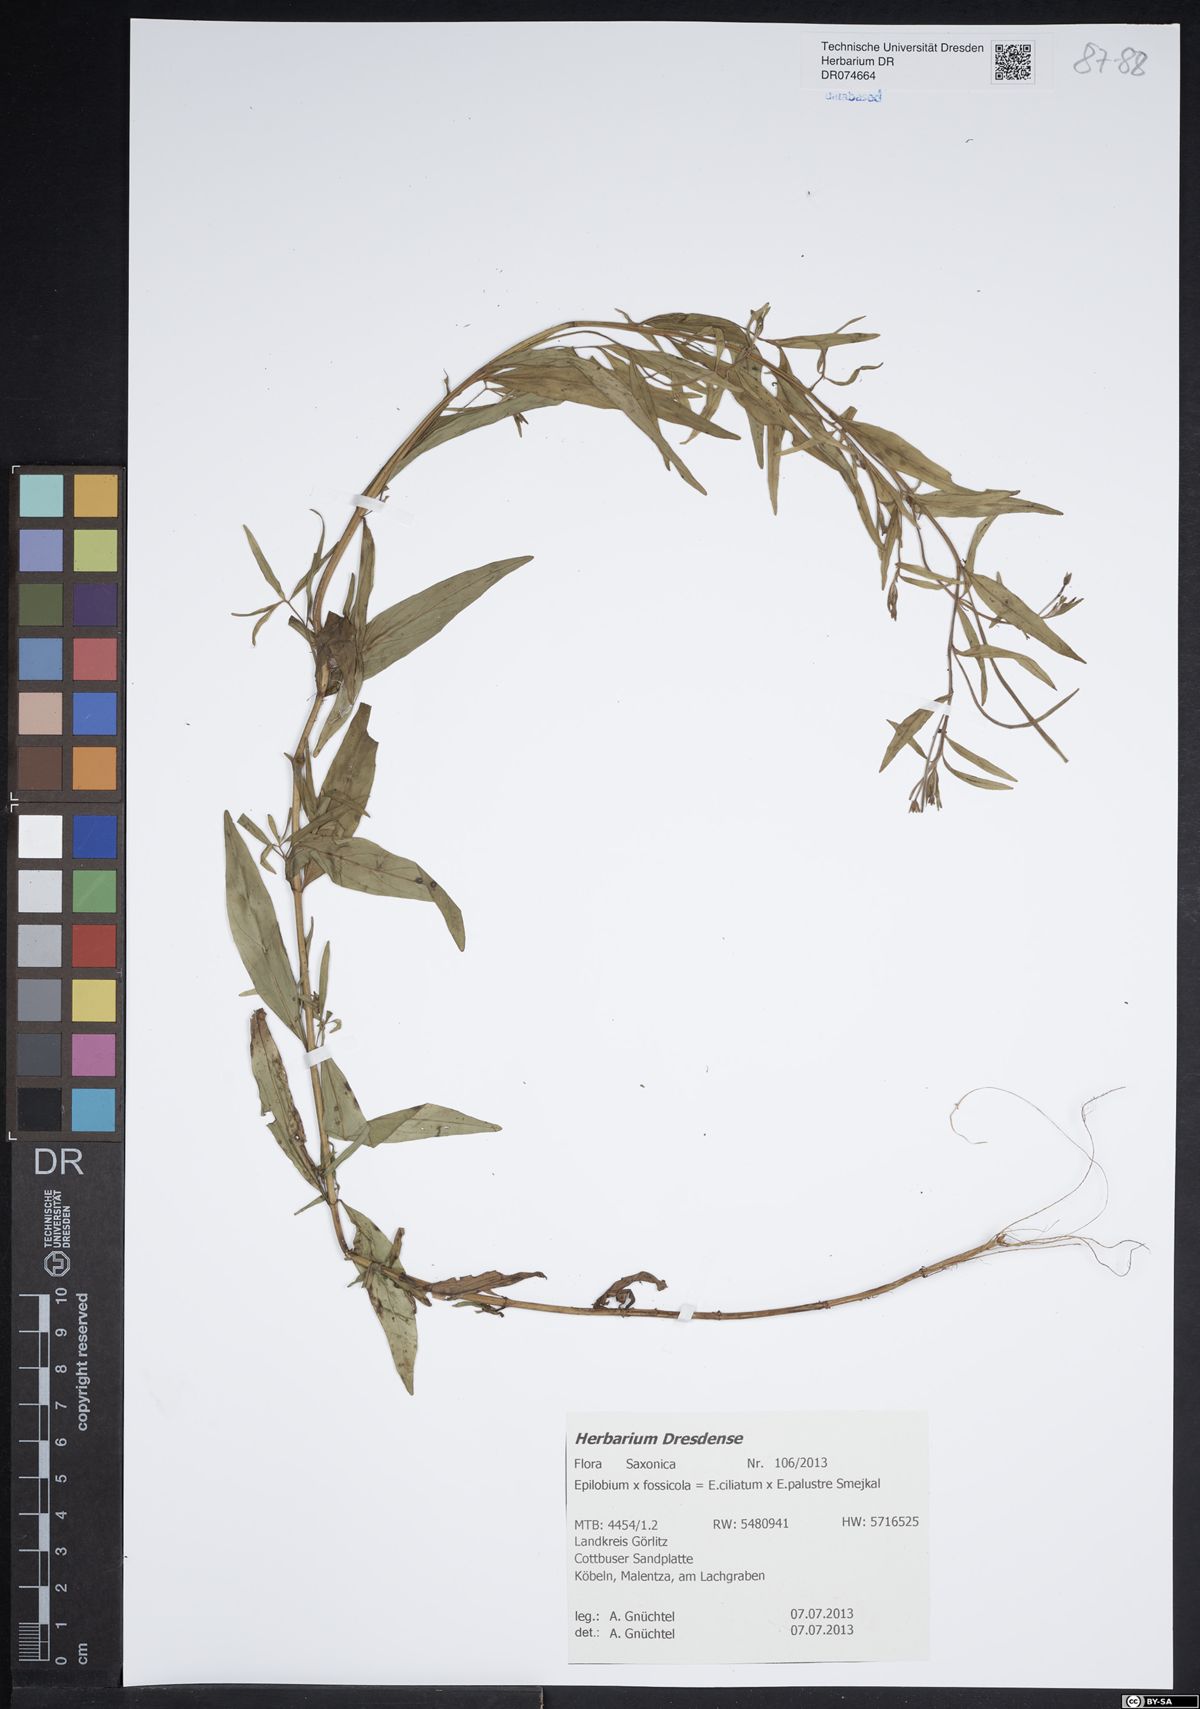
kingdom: Plantae
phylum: Tracheophyta
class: Magnoliopsida
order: Myrtales
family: Onagraceae
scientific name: Onagraceae
